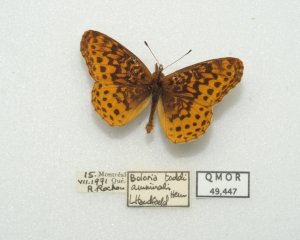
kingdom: Animalia
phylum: Arthropoda
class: Insecta
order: Lepidoptera
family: Nymphalidae
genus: Clossiana
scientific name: Clossiana toddi
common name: Meadow Fritillary
